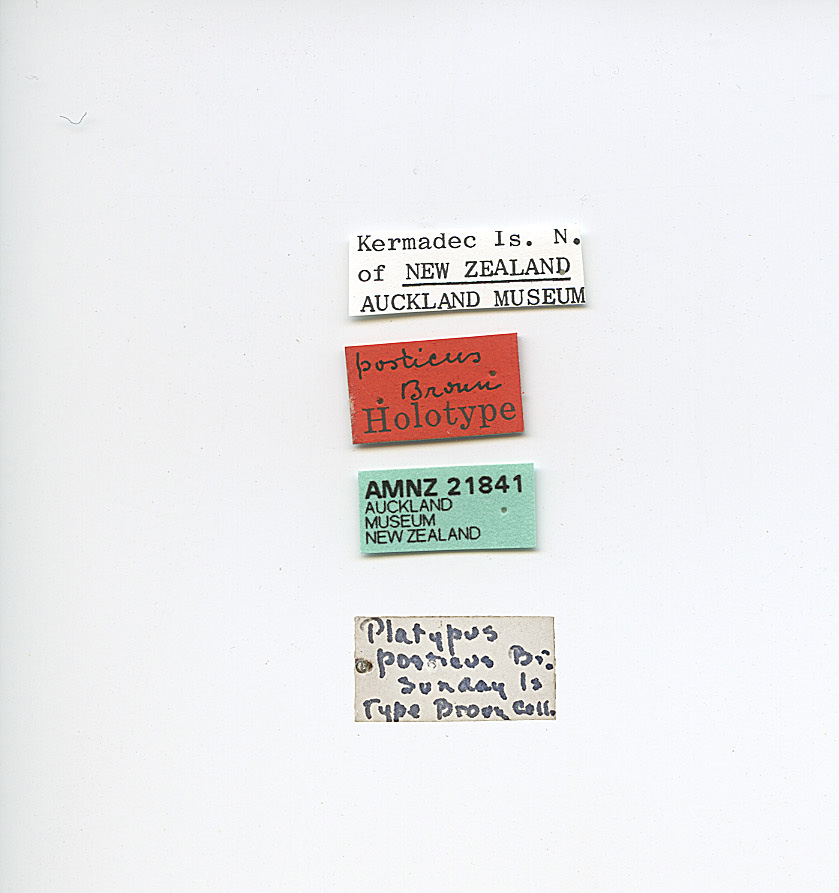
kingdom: Animalia
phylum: Arthropoda
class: Insecta
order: Coleoptera
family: Curculionidae
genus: Crossotarsus
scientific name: Crossotarsus externedentatus
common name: Beetle
